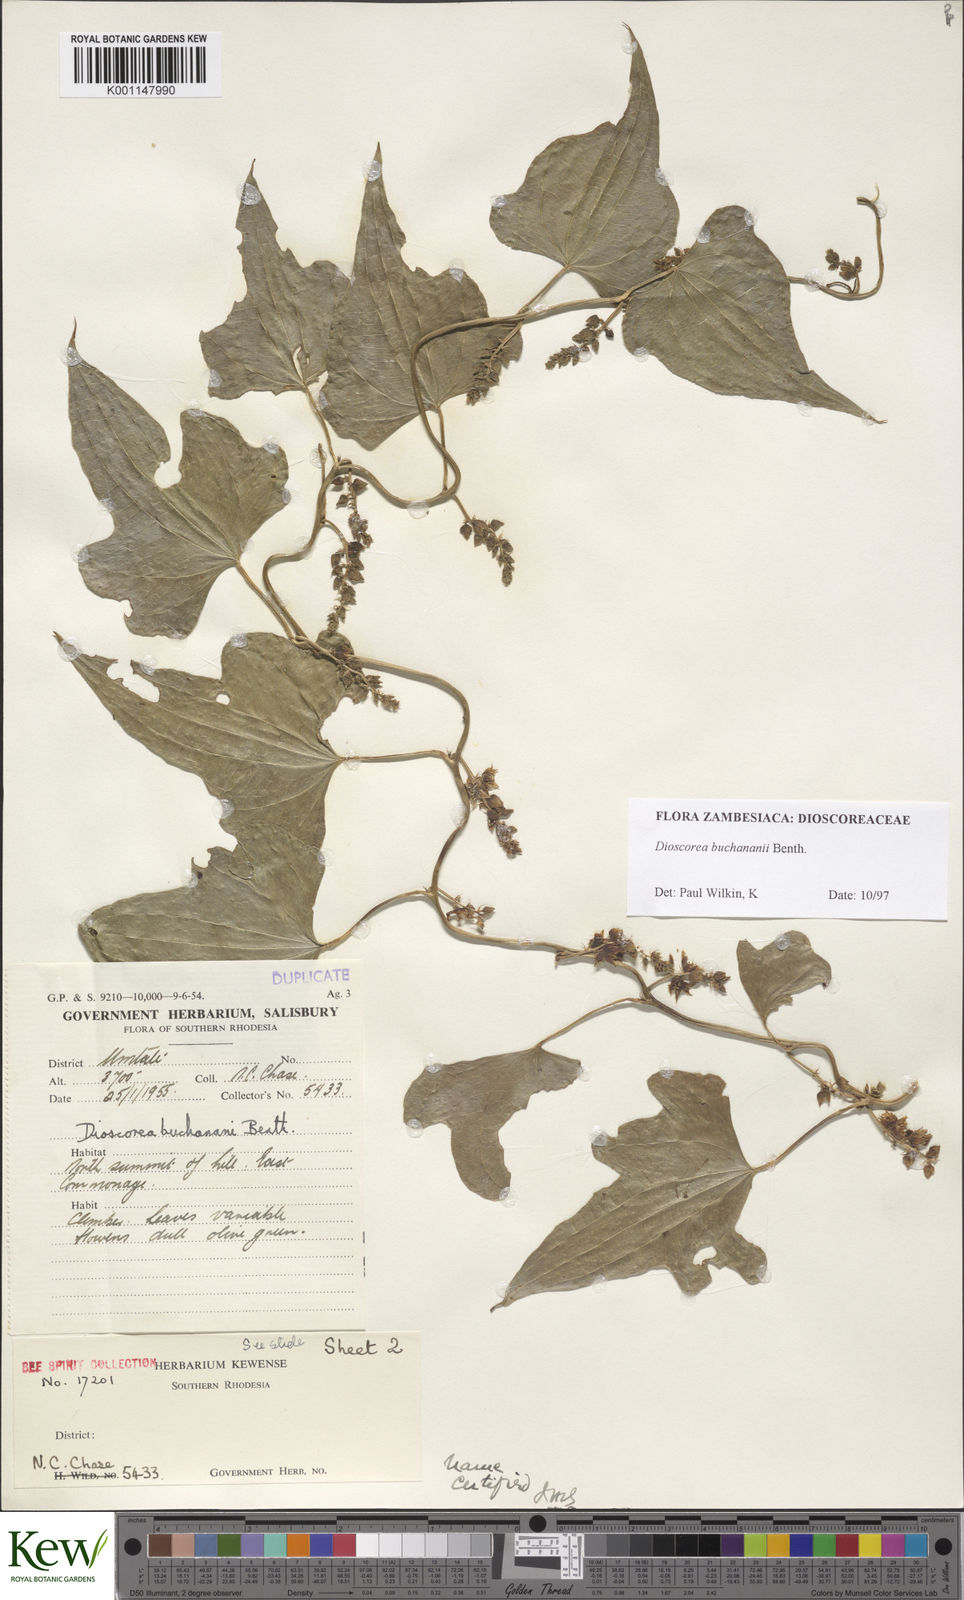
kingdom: Plantae
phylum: Tracheophyta
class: Liliopsida
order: Dioscoreales
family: Dioscoreaceae
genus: Dioscorea
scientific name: Dioscorea buchananii
